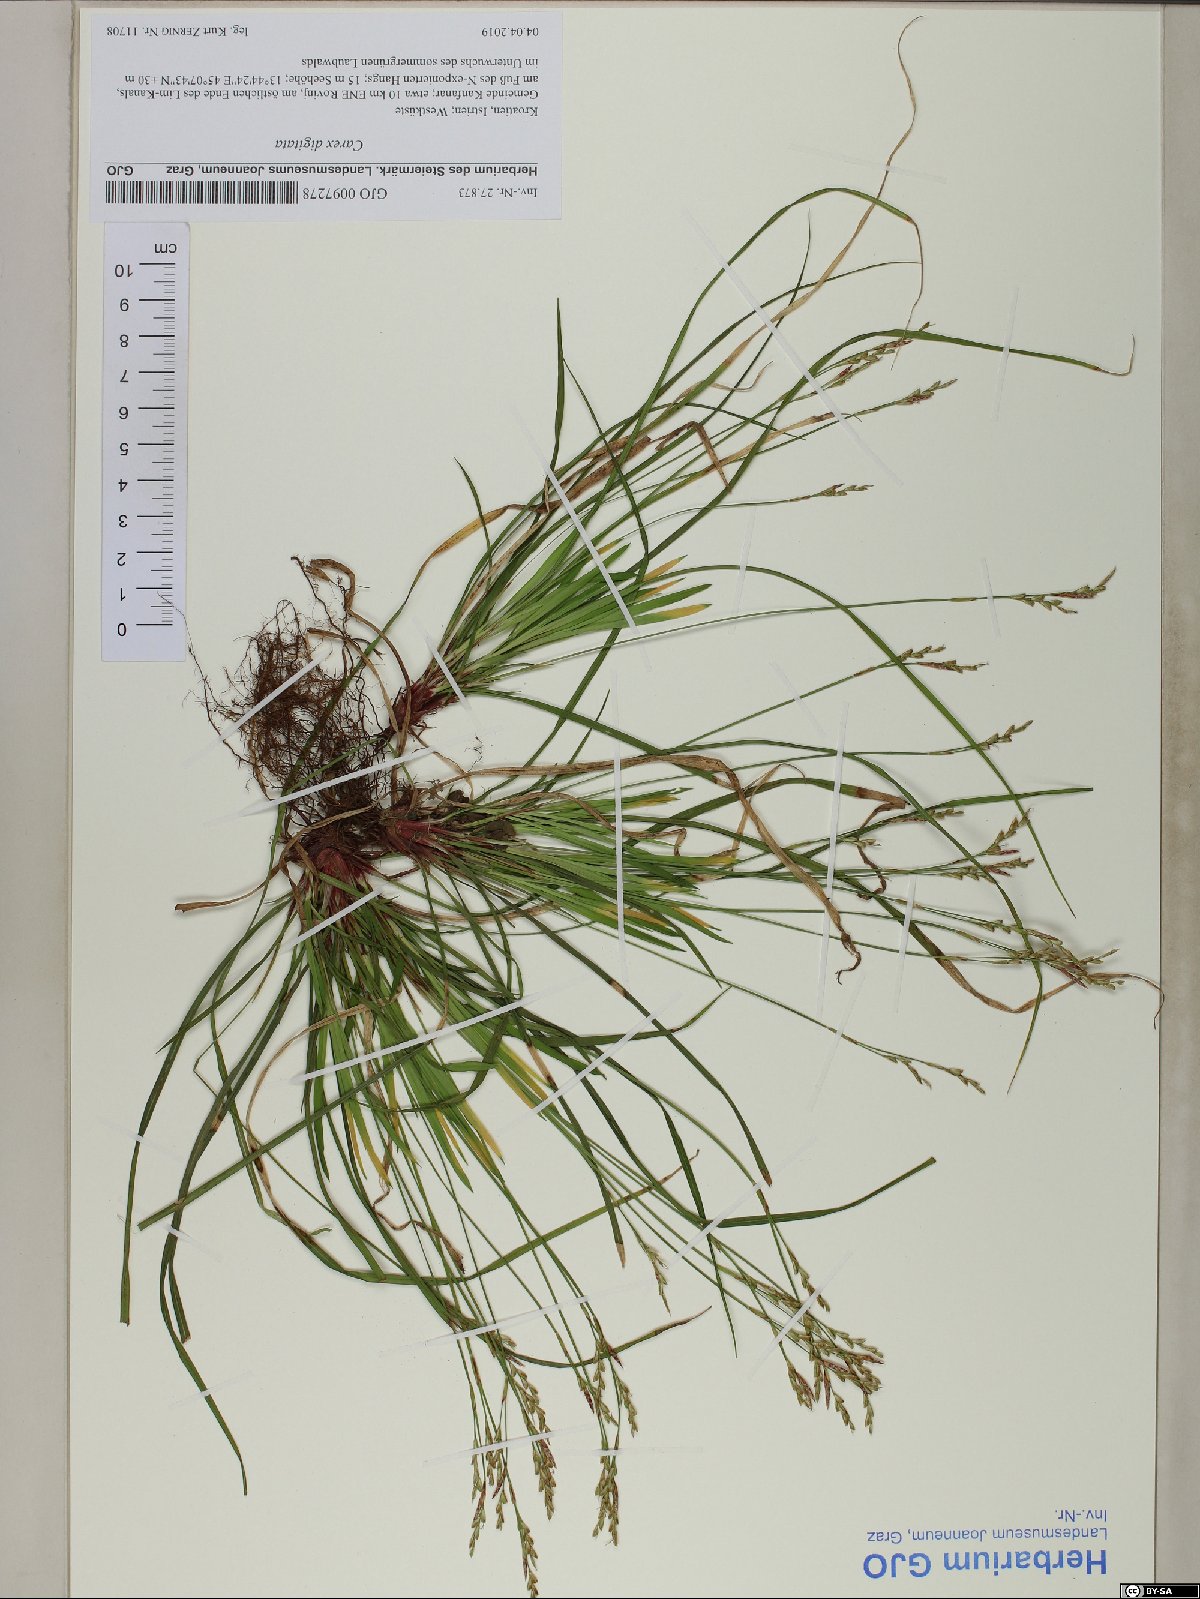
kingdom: Plantae
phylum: Tracheophyta
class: Liliopsida
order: Poales
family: Cyperaceae
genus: Carex
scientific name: Carex digitata
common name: Fingered sedge
